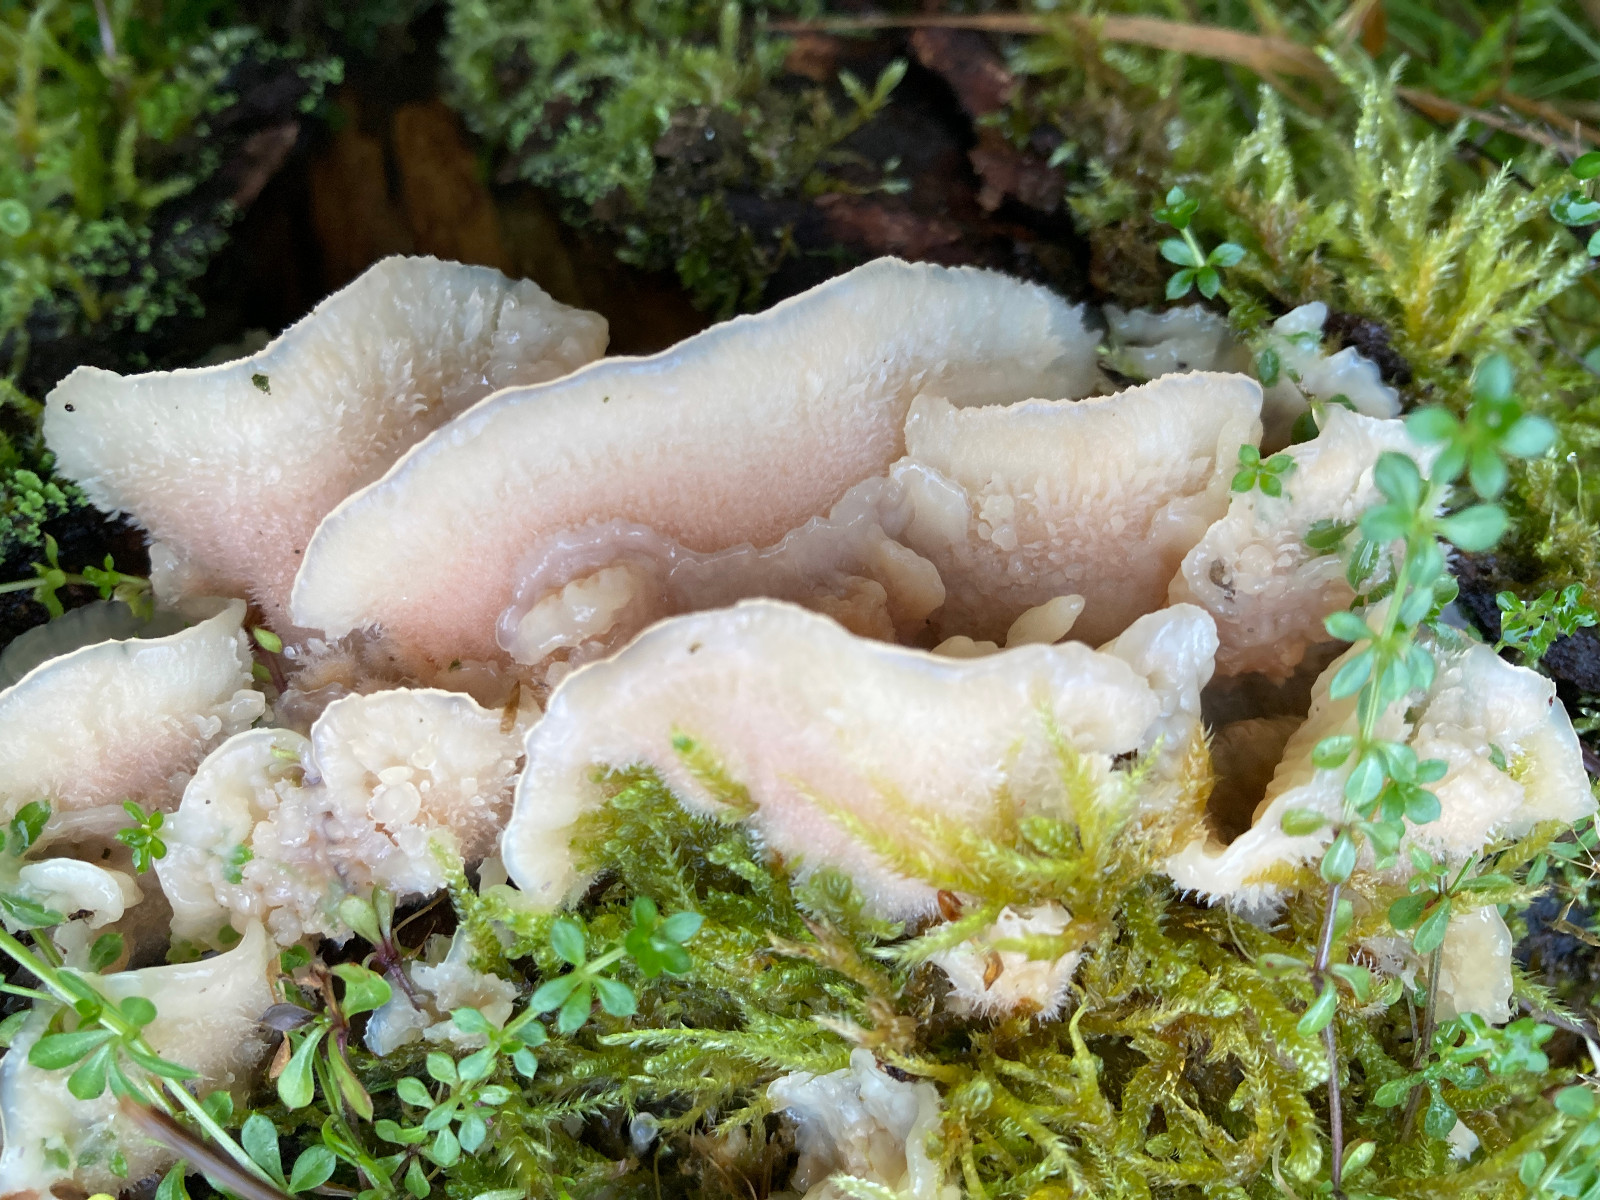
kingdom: Fungi
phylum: Basidiomycota
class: Agaricomycetes
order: Polyporales
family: Meruliaceae
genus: Phlebia
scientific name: Phlebia tremellosa
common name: bævrende åresvamp
